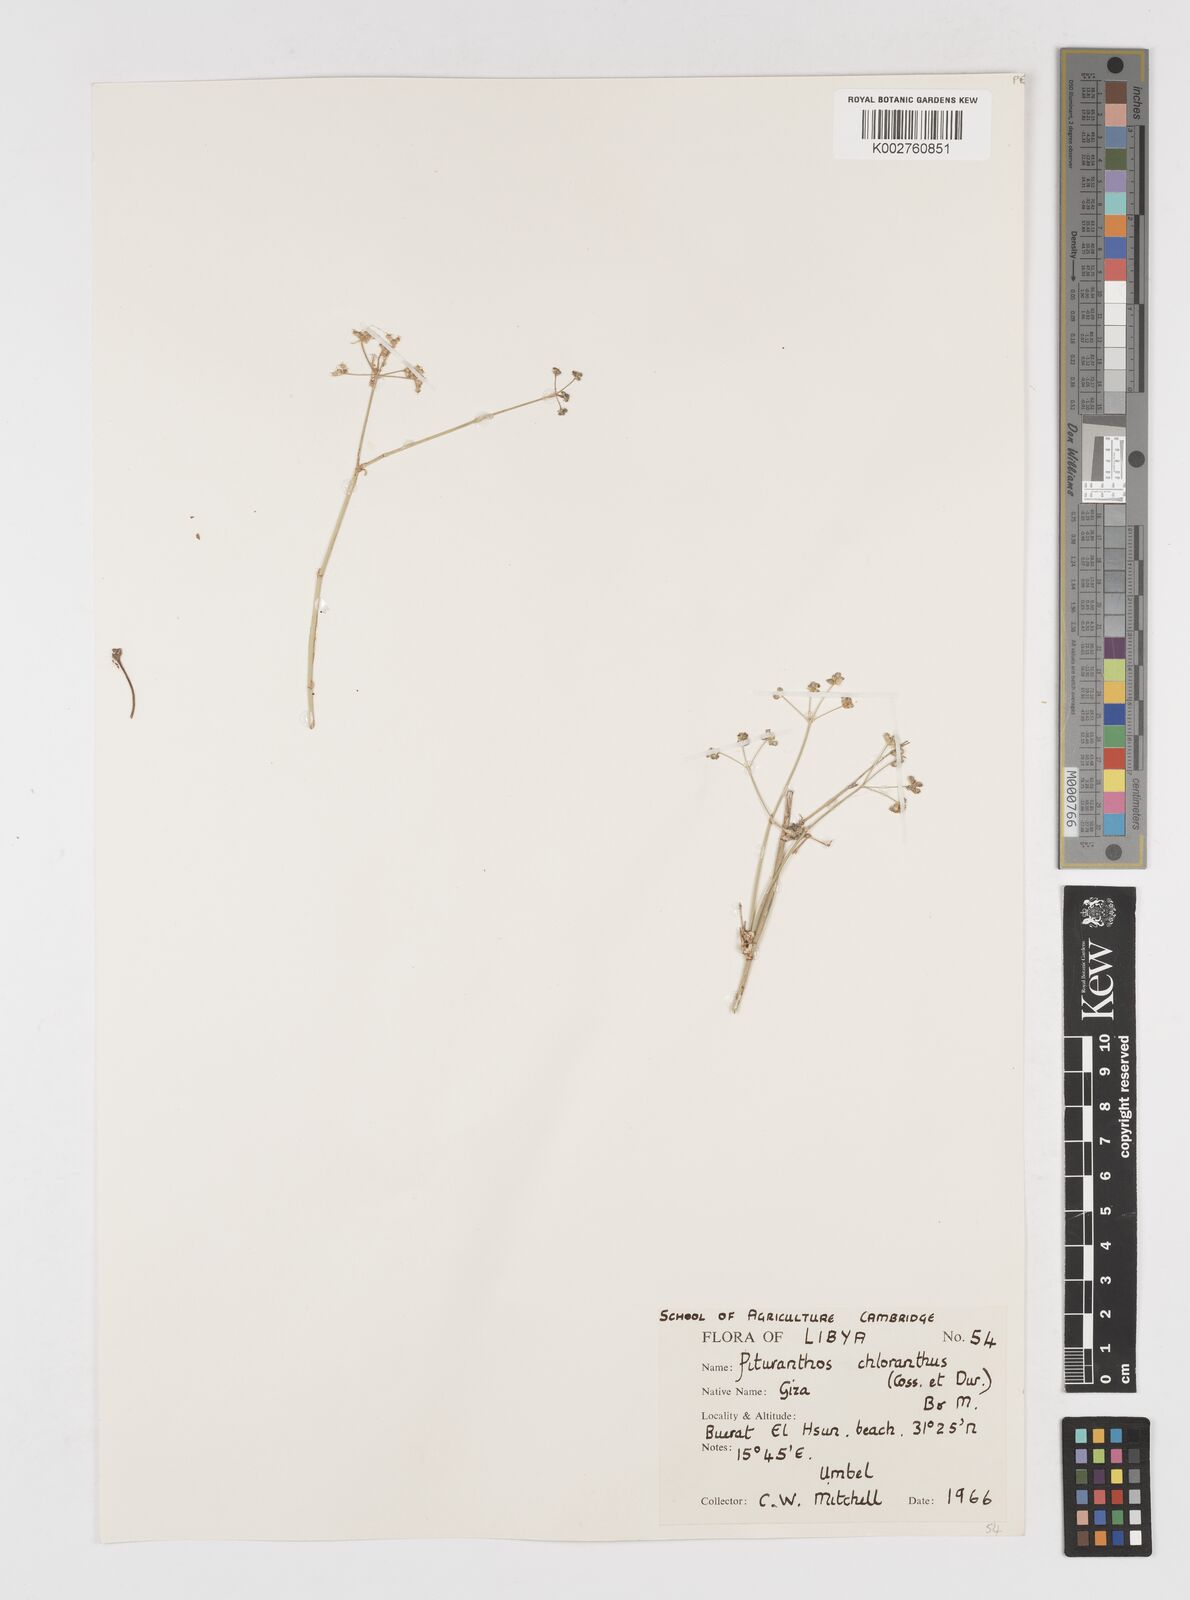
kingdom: Plantae
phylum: Tracheophyta
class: Magnoliopsida
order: Apiales
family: Apiaceae
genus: Deverra
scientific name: Deverra denudata
